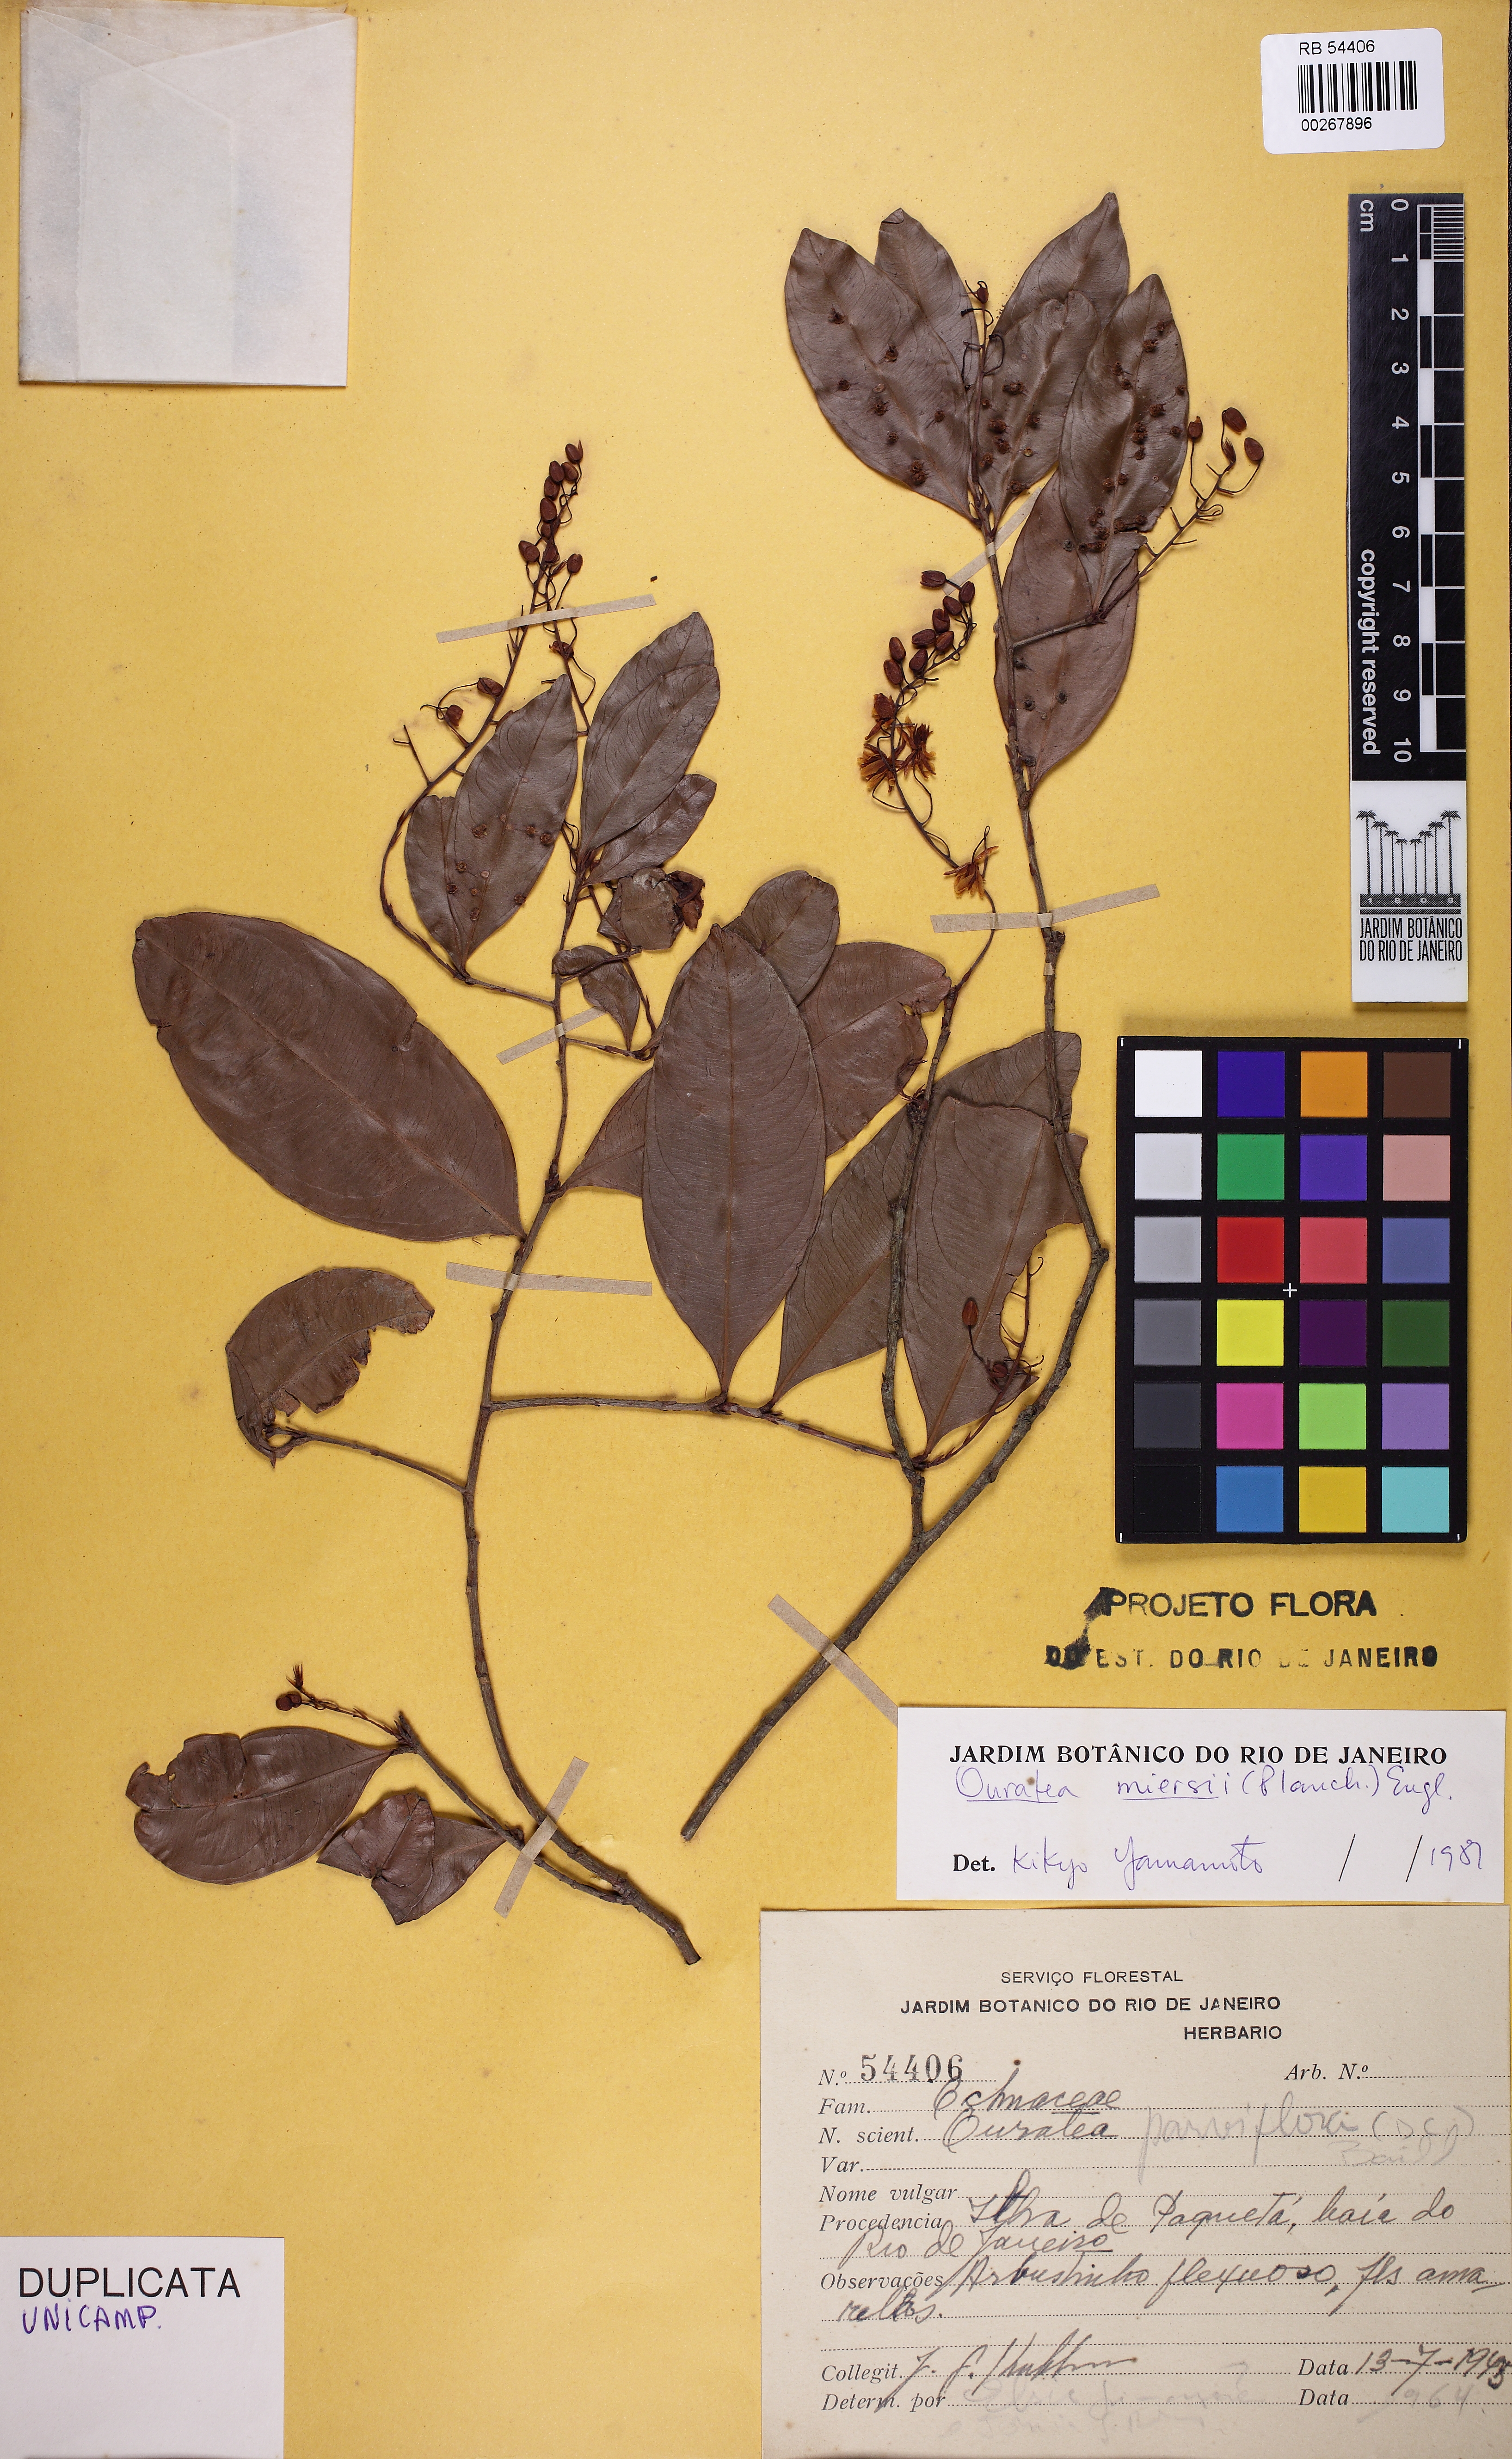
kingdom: Plantae
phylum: Tracheophyta
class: Magnoliopsida
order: Malpighiales
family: Ochnaceae
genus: Ouratea
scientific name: Ouratea miersii
